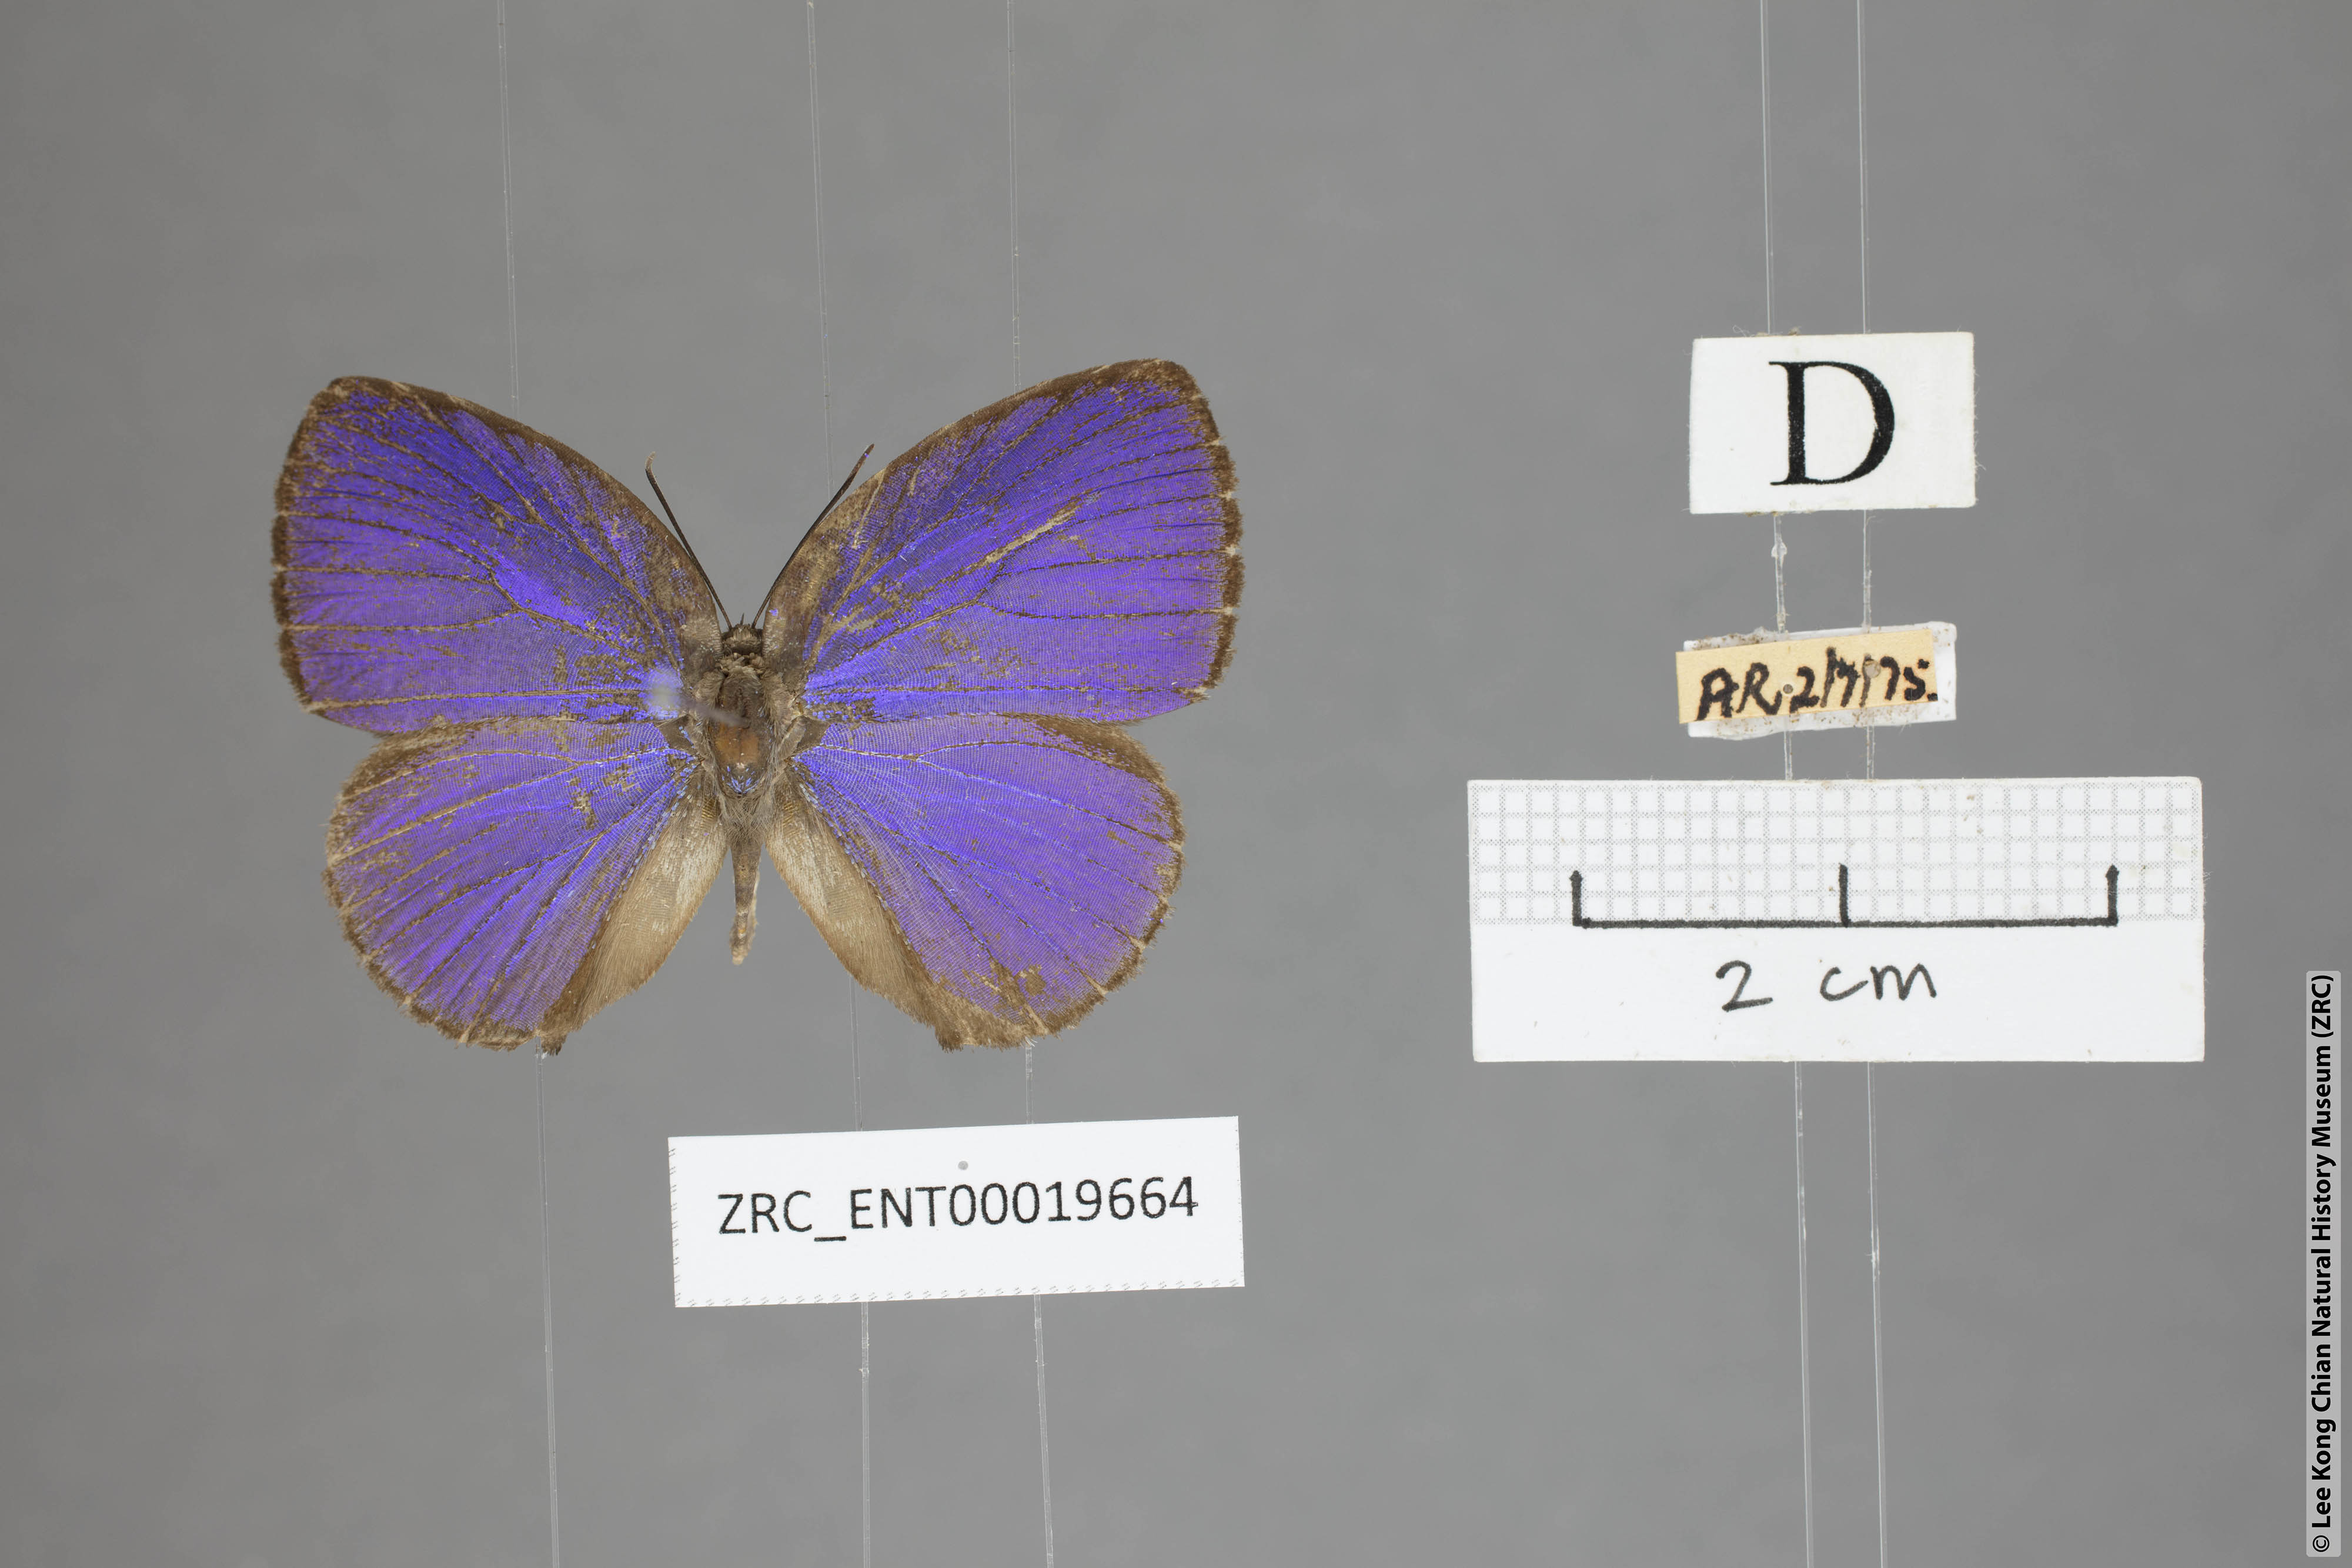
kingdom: Animalia
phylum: Arthropoda
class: Insecta
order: Lepidoptera
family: Lycaenidae
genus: Arhopala
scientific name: Arhopala moolaina
